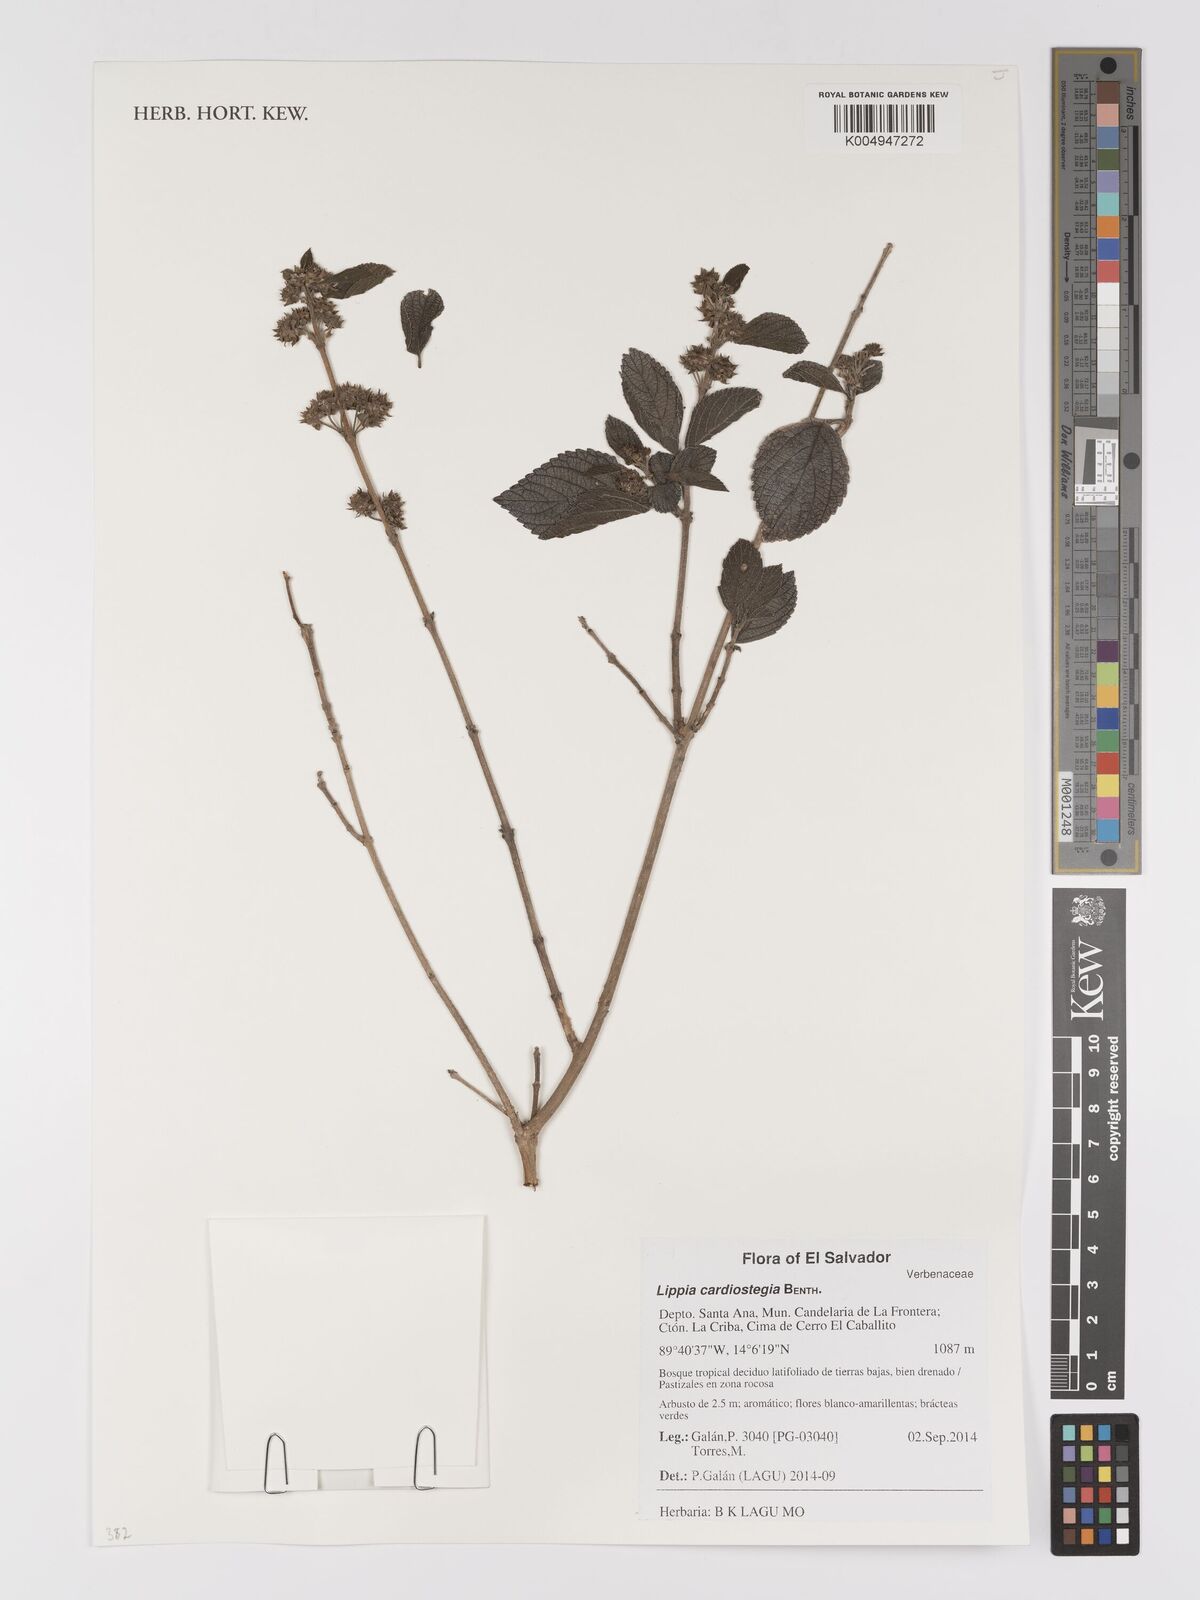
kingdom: Plantae
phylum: Tracheophyta
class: Magnoliopsida
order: Lamiales
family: Verbenaceae
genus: Lippia
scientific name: Lippia cardiostegia
